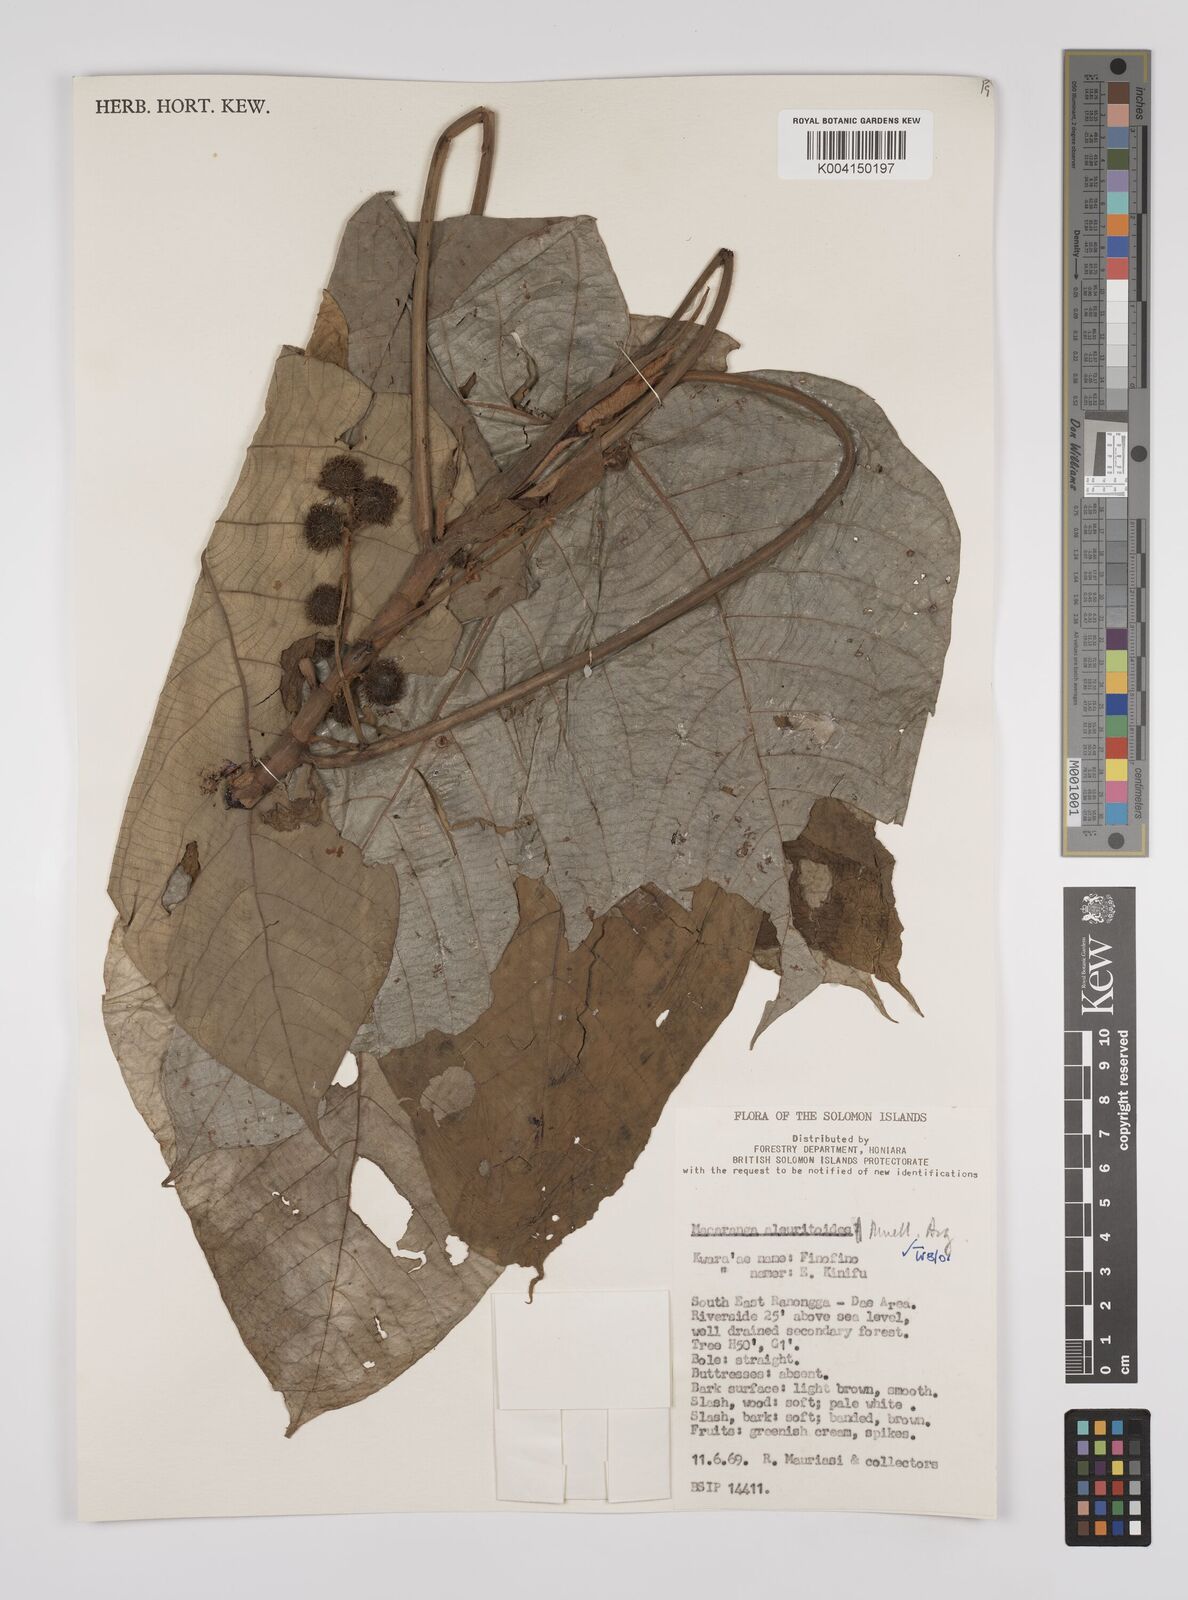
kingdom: Plantae
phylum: Tracheophyta
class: Magnoliopsida
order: Malpighiales
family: Euphorbiaceae
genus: Macaranga
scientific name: Macaranga aleuritoides
